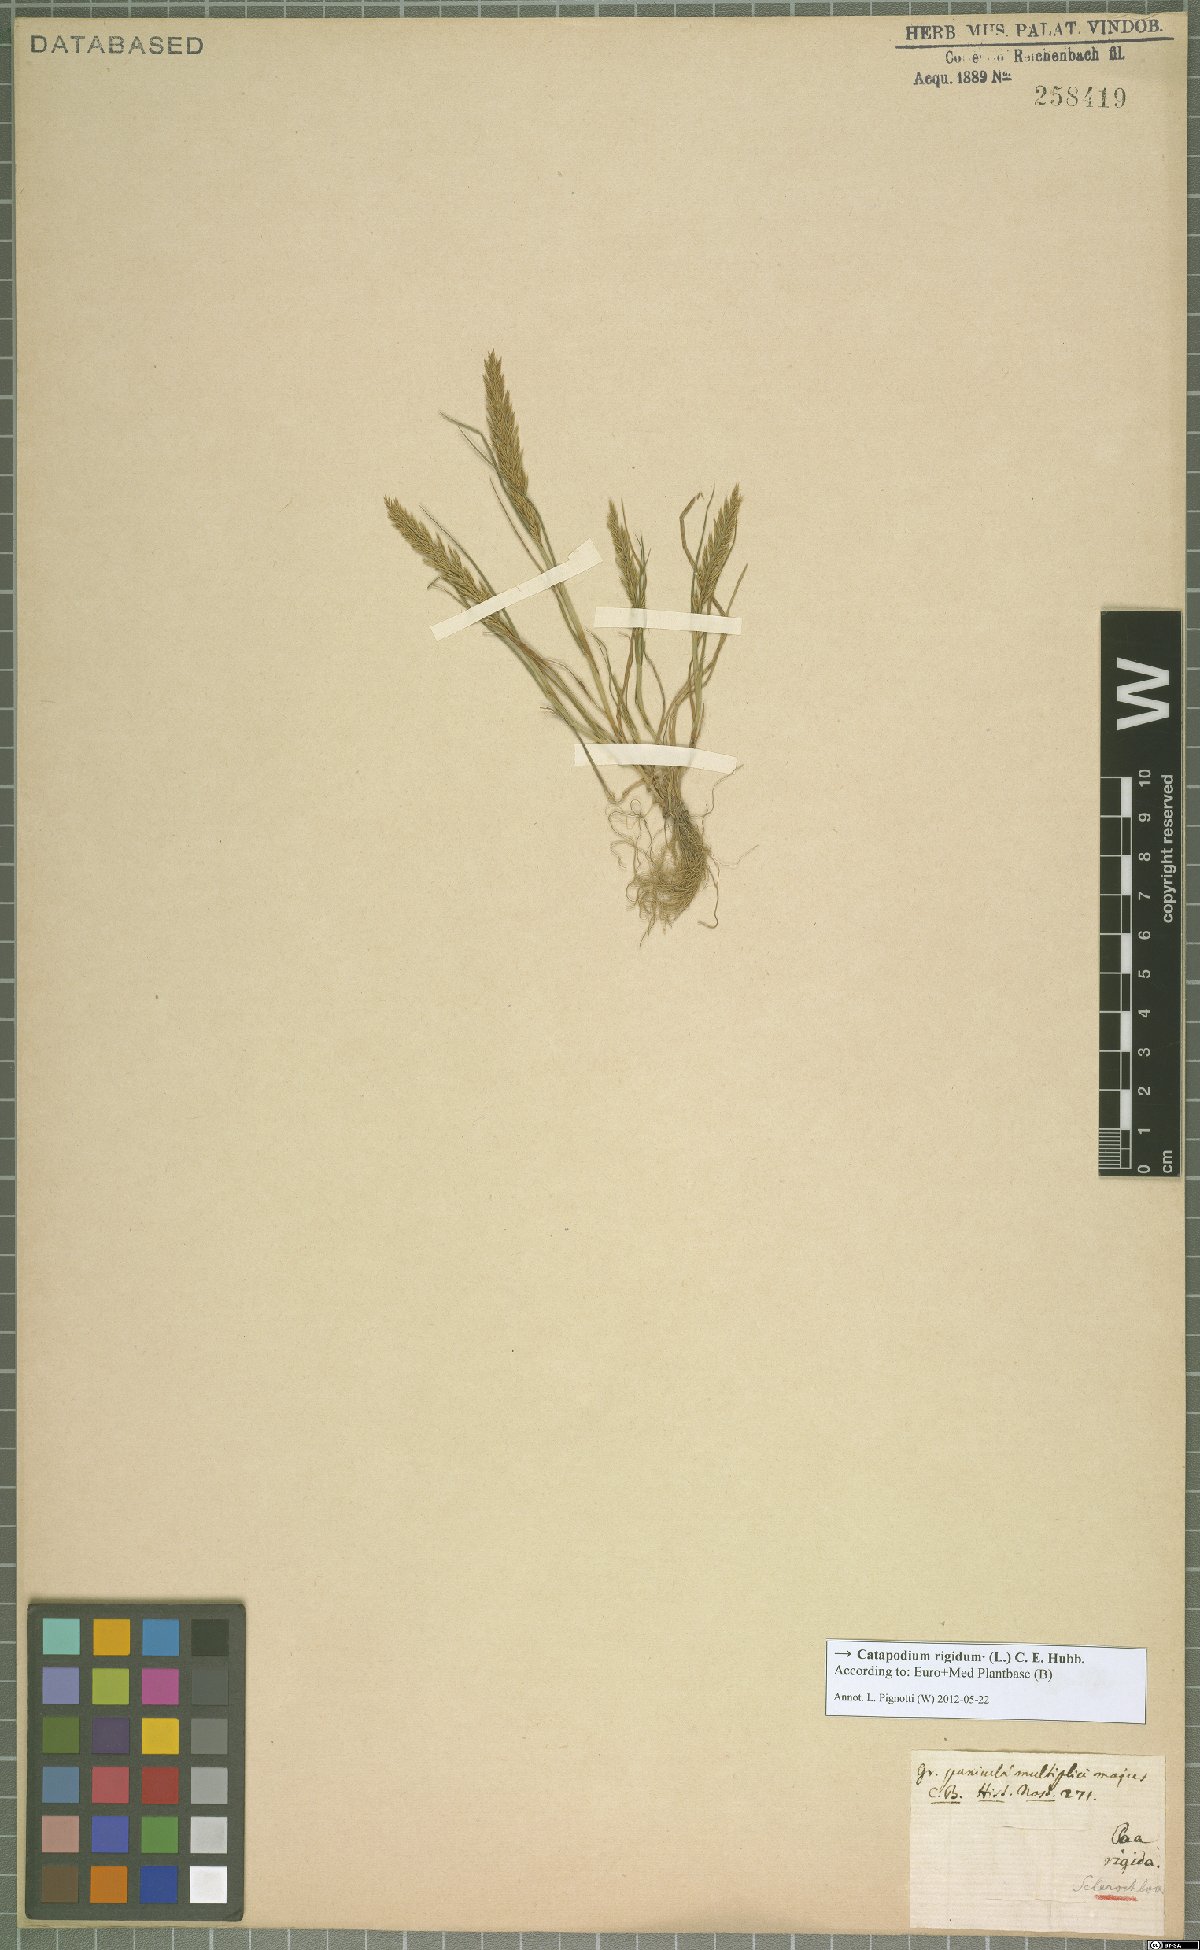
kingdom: Plantae
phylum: Tracheophyta
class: Liliopsida
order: Poales
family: Poaceae
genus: Catapodium
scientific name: Catapodium rigidum
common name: Fern-grass
